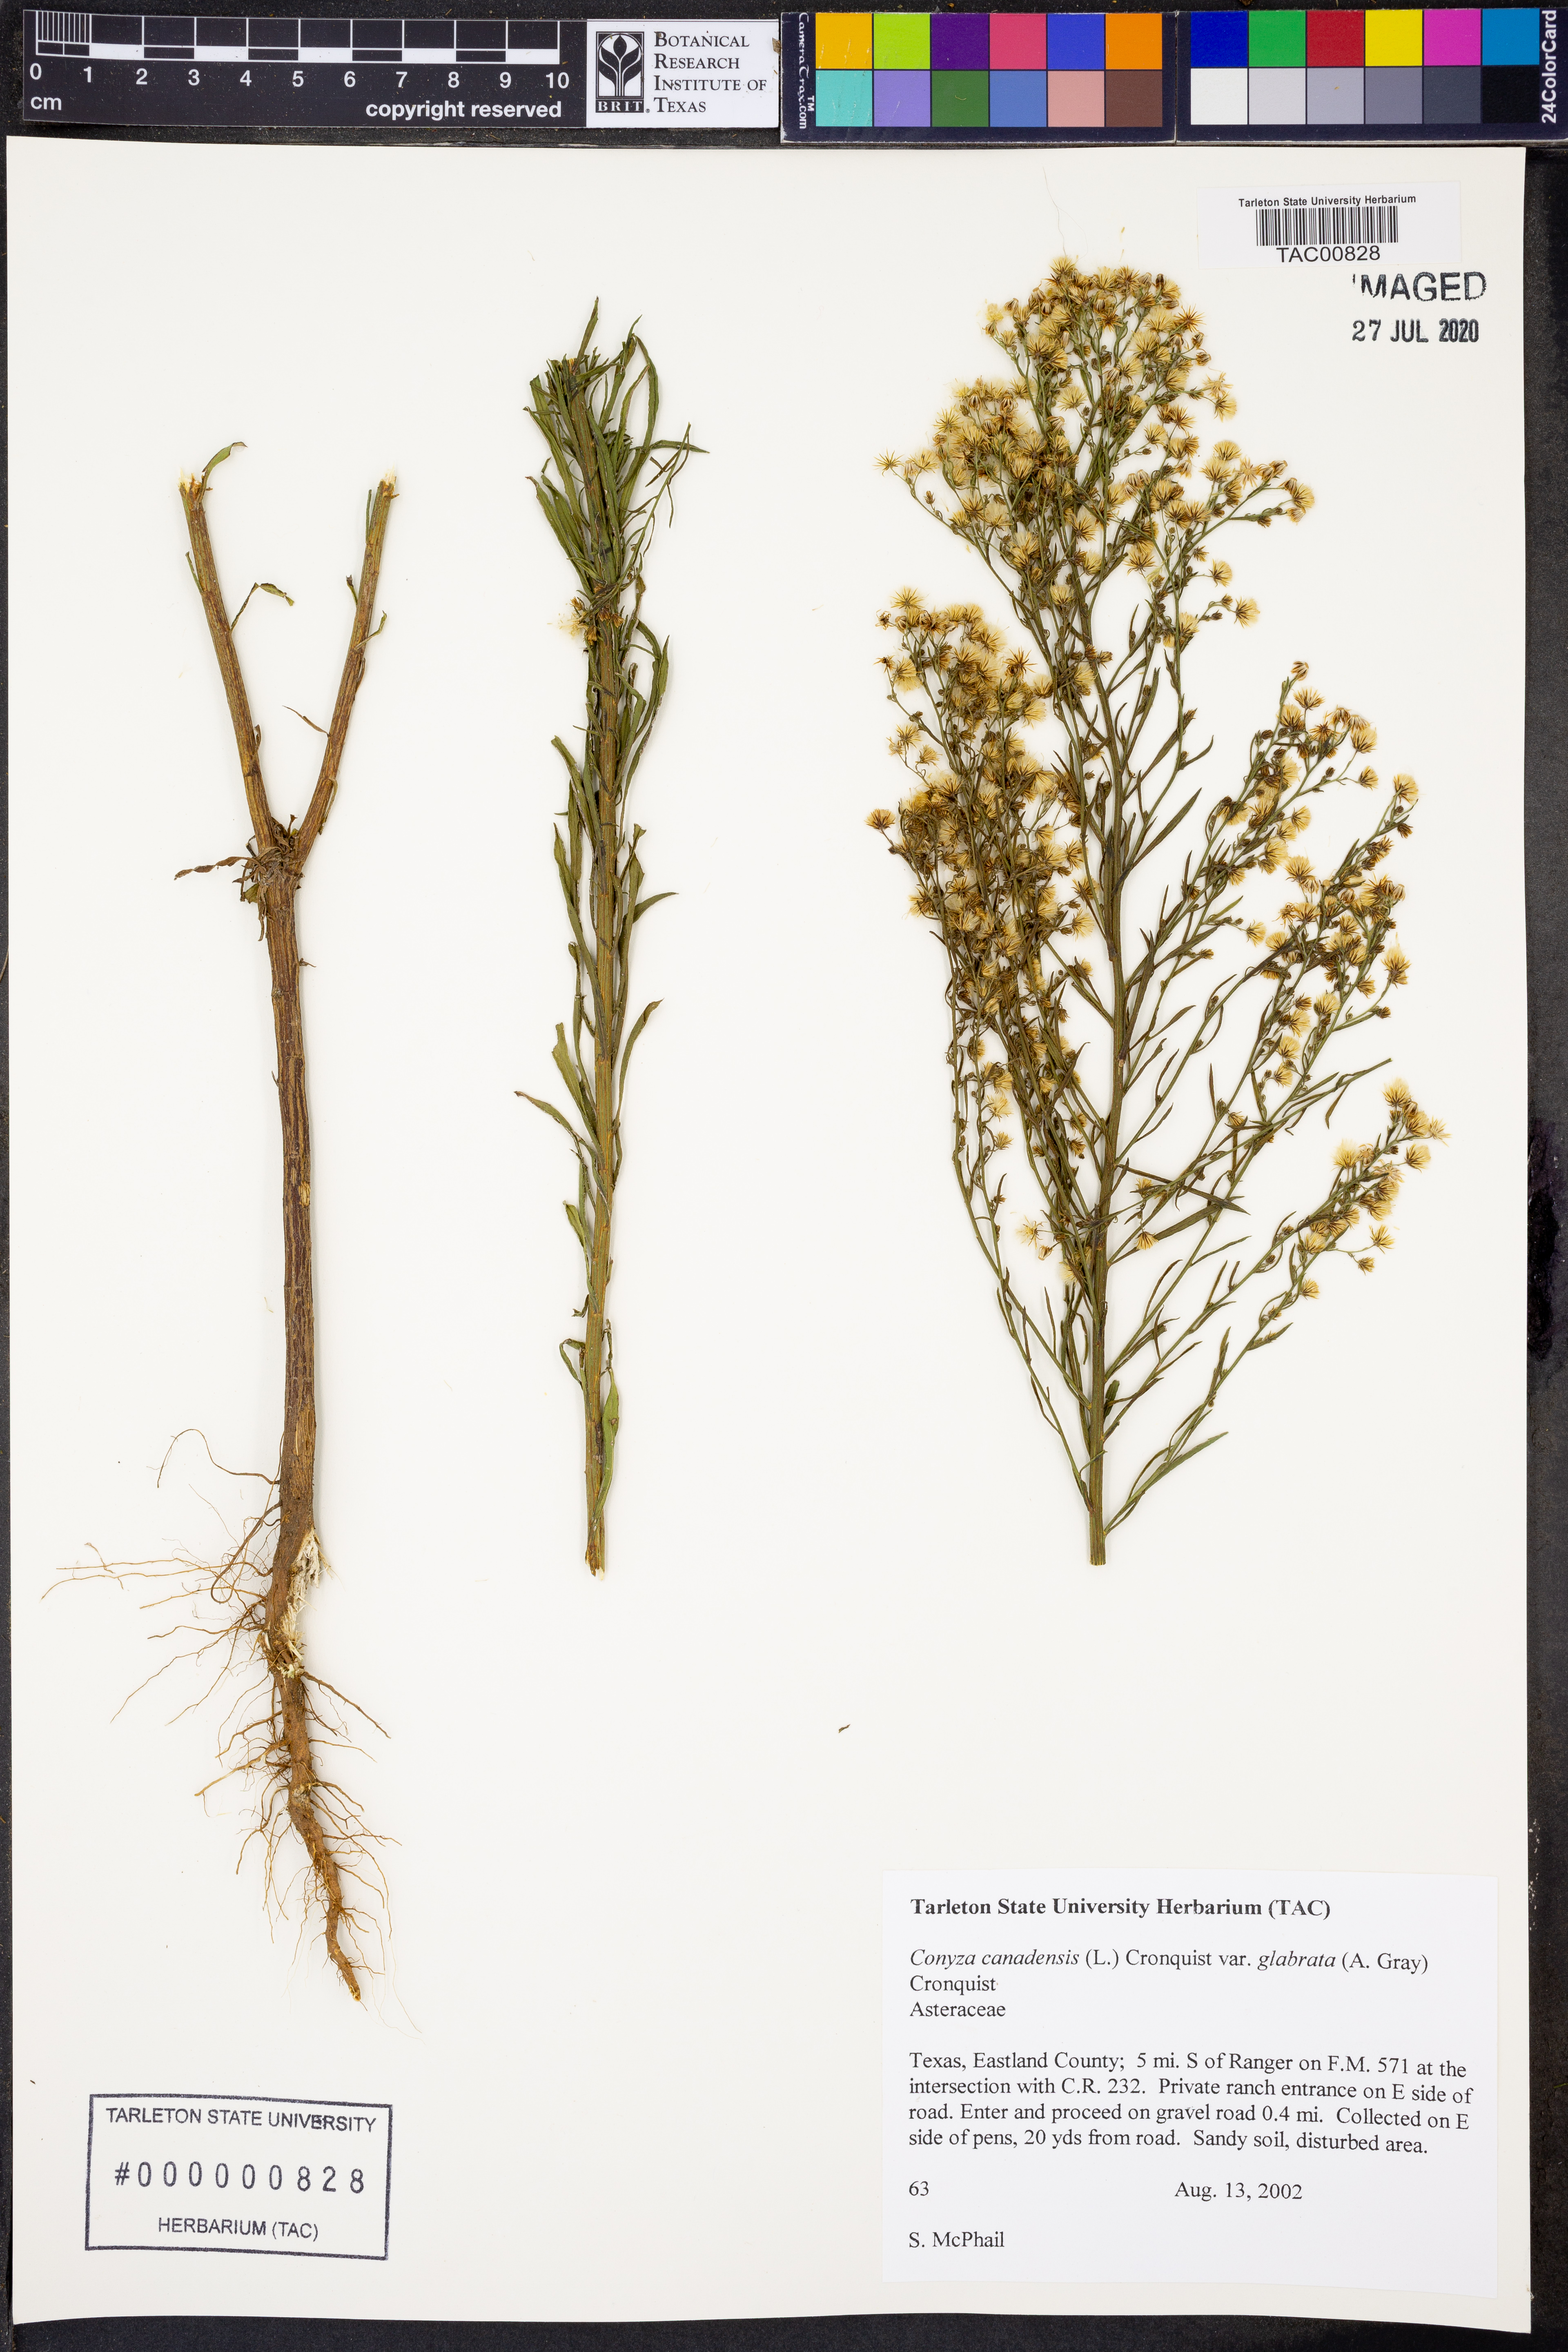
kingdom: Plantae
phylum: Tracheophyta
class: Magnoliopsida
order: Asterales
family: Asteraceae
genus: Erigeron
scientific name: Erigeron canadensis
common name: Canadian fleabane
